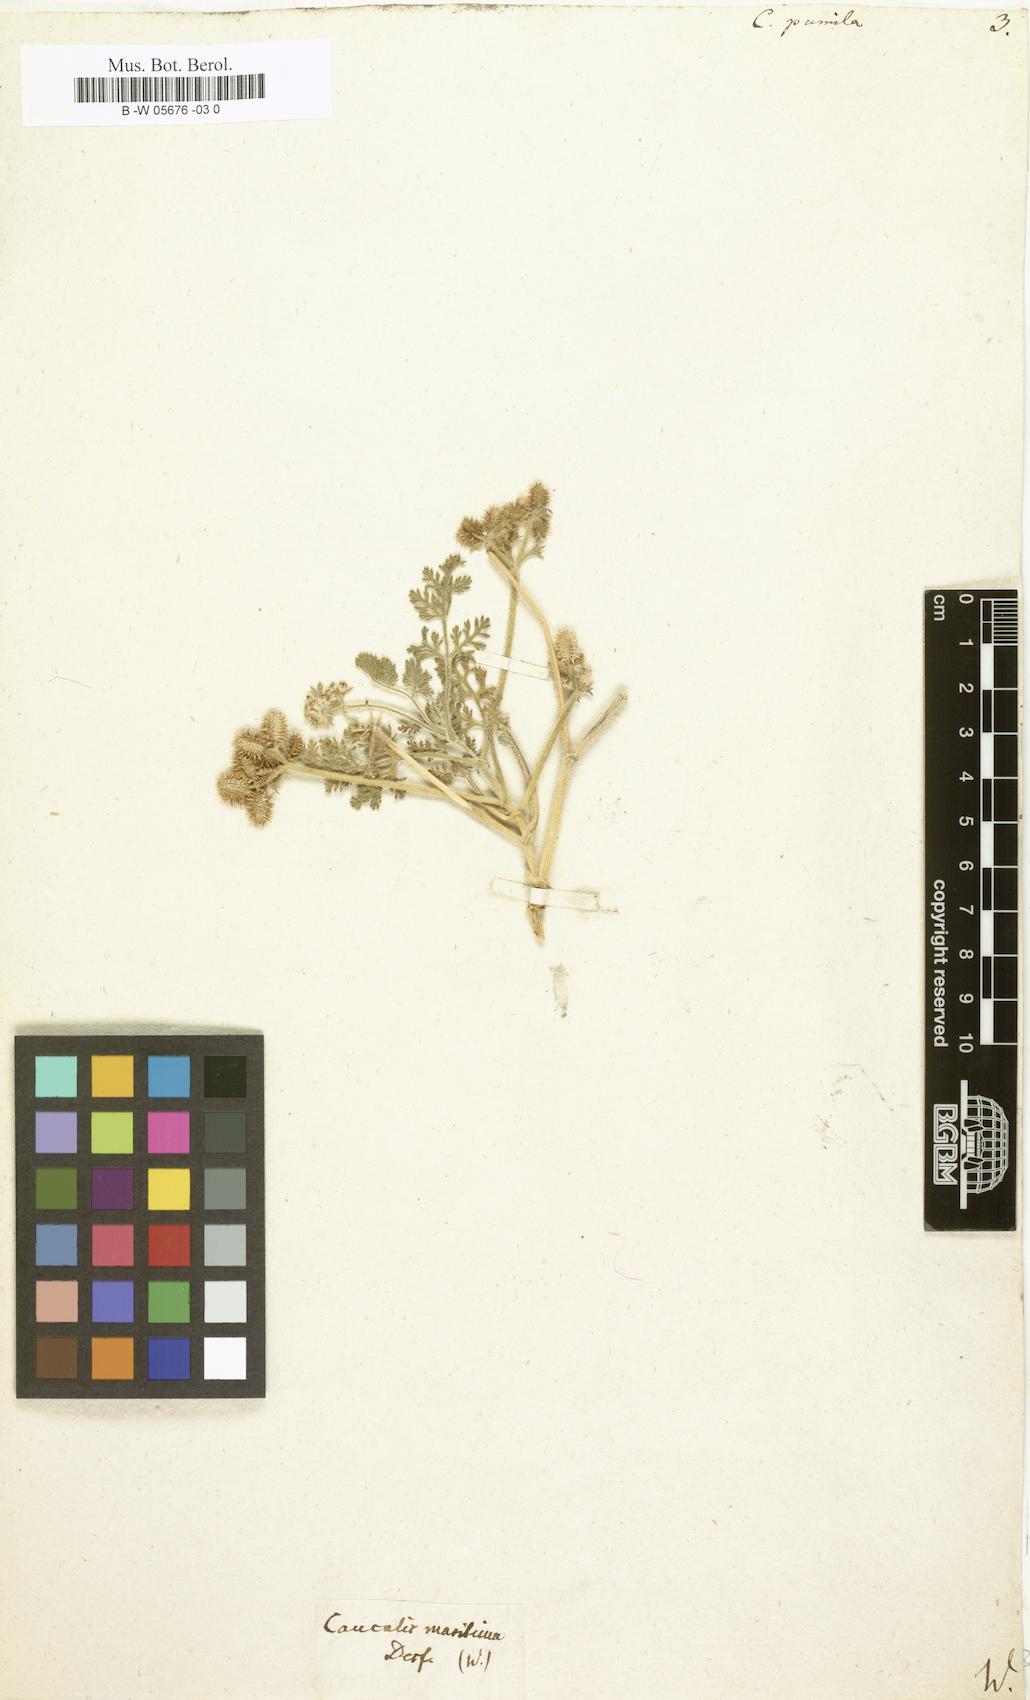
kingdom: Plantae
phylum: Tracheophyta
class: Magnoliopsida
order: Apiales
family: Apiaceae
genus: Caucalis
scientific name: Caucalis pumila
